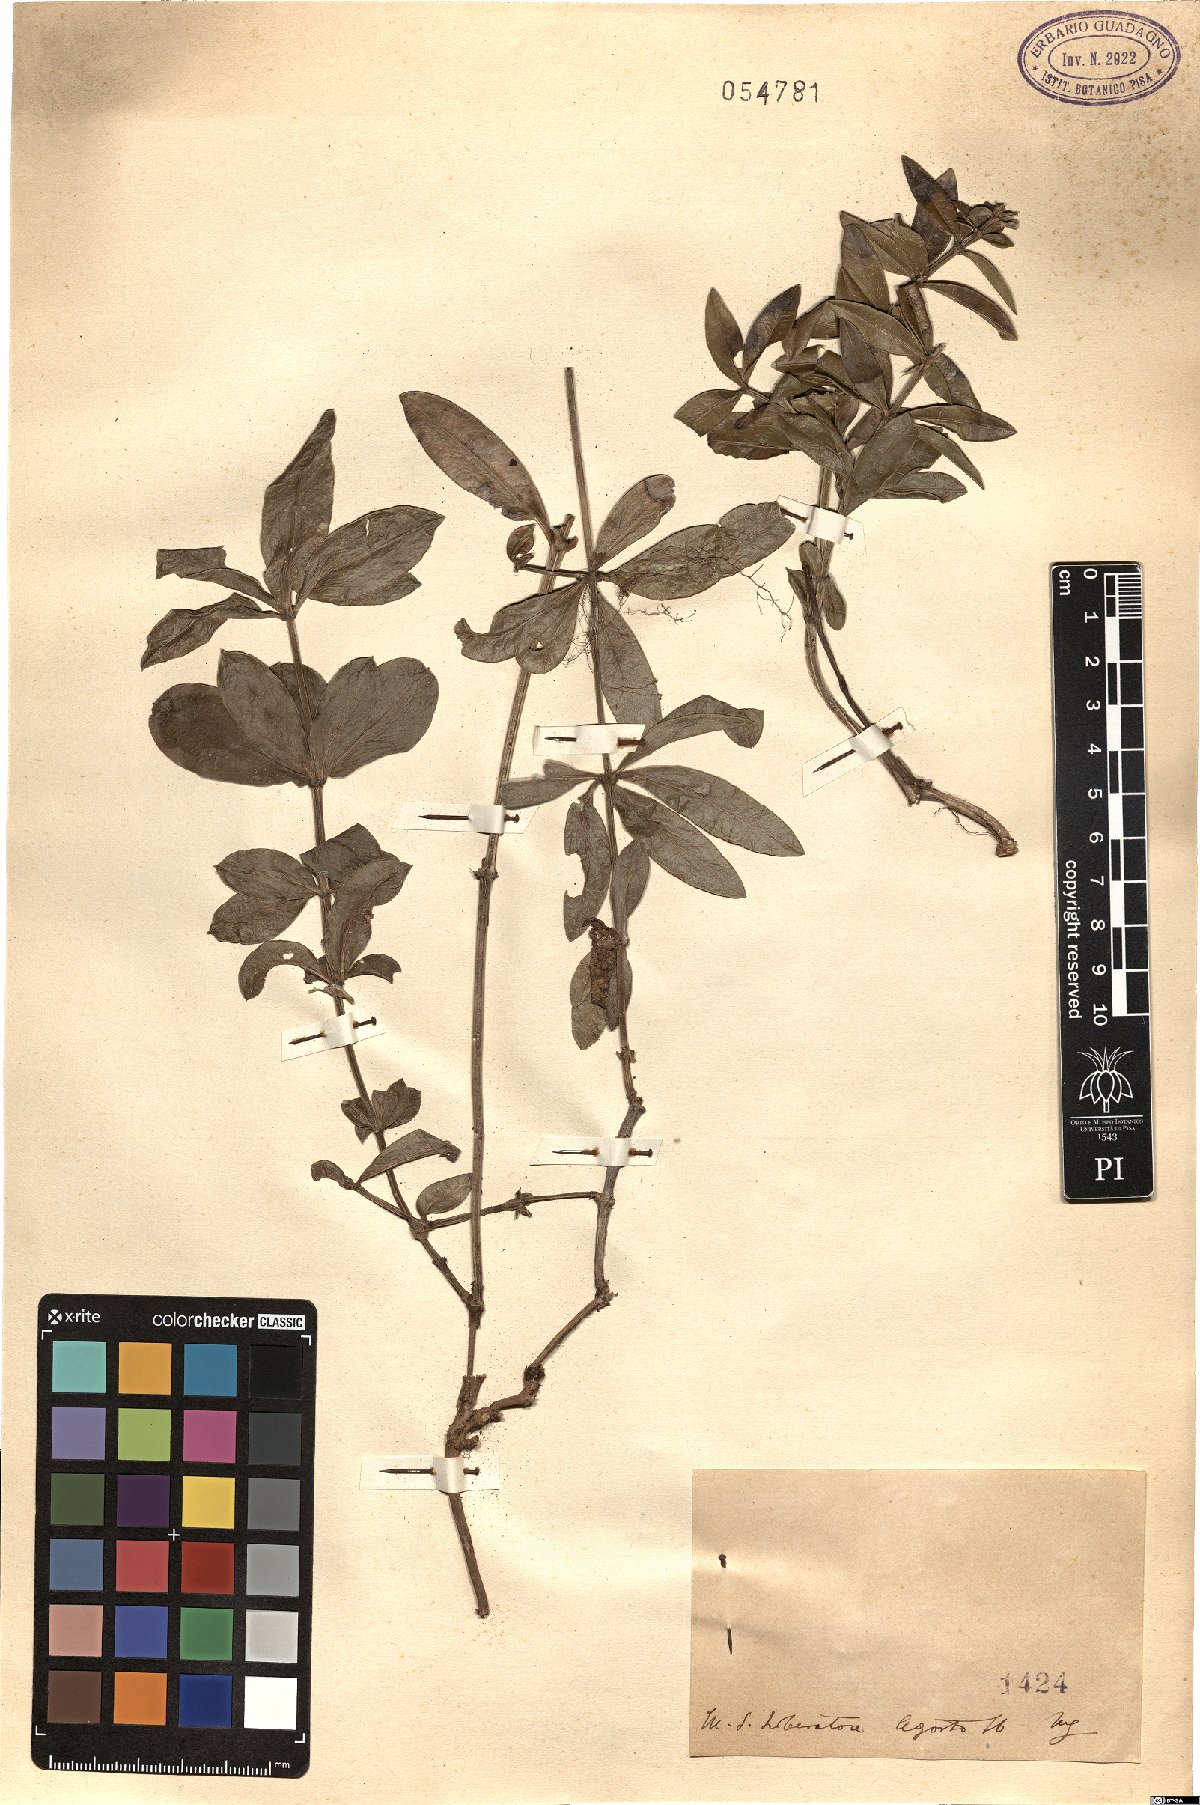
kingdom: Plantae
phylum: Tracheophyta
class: Magnoliopsida
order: Gentianales
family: Rubiaceae
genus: Rubia
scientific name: Rubia
